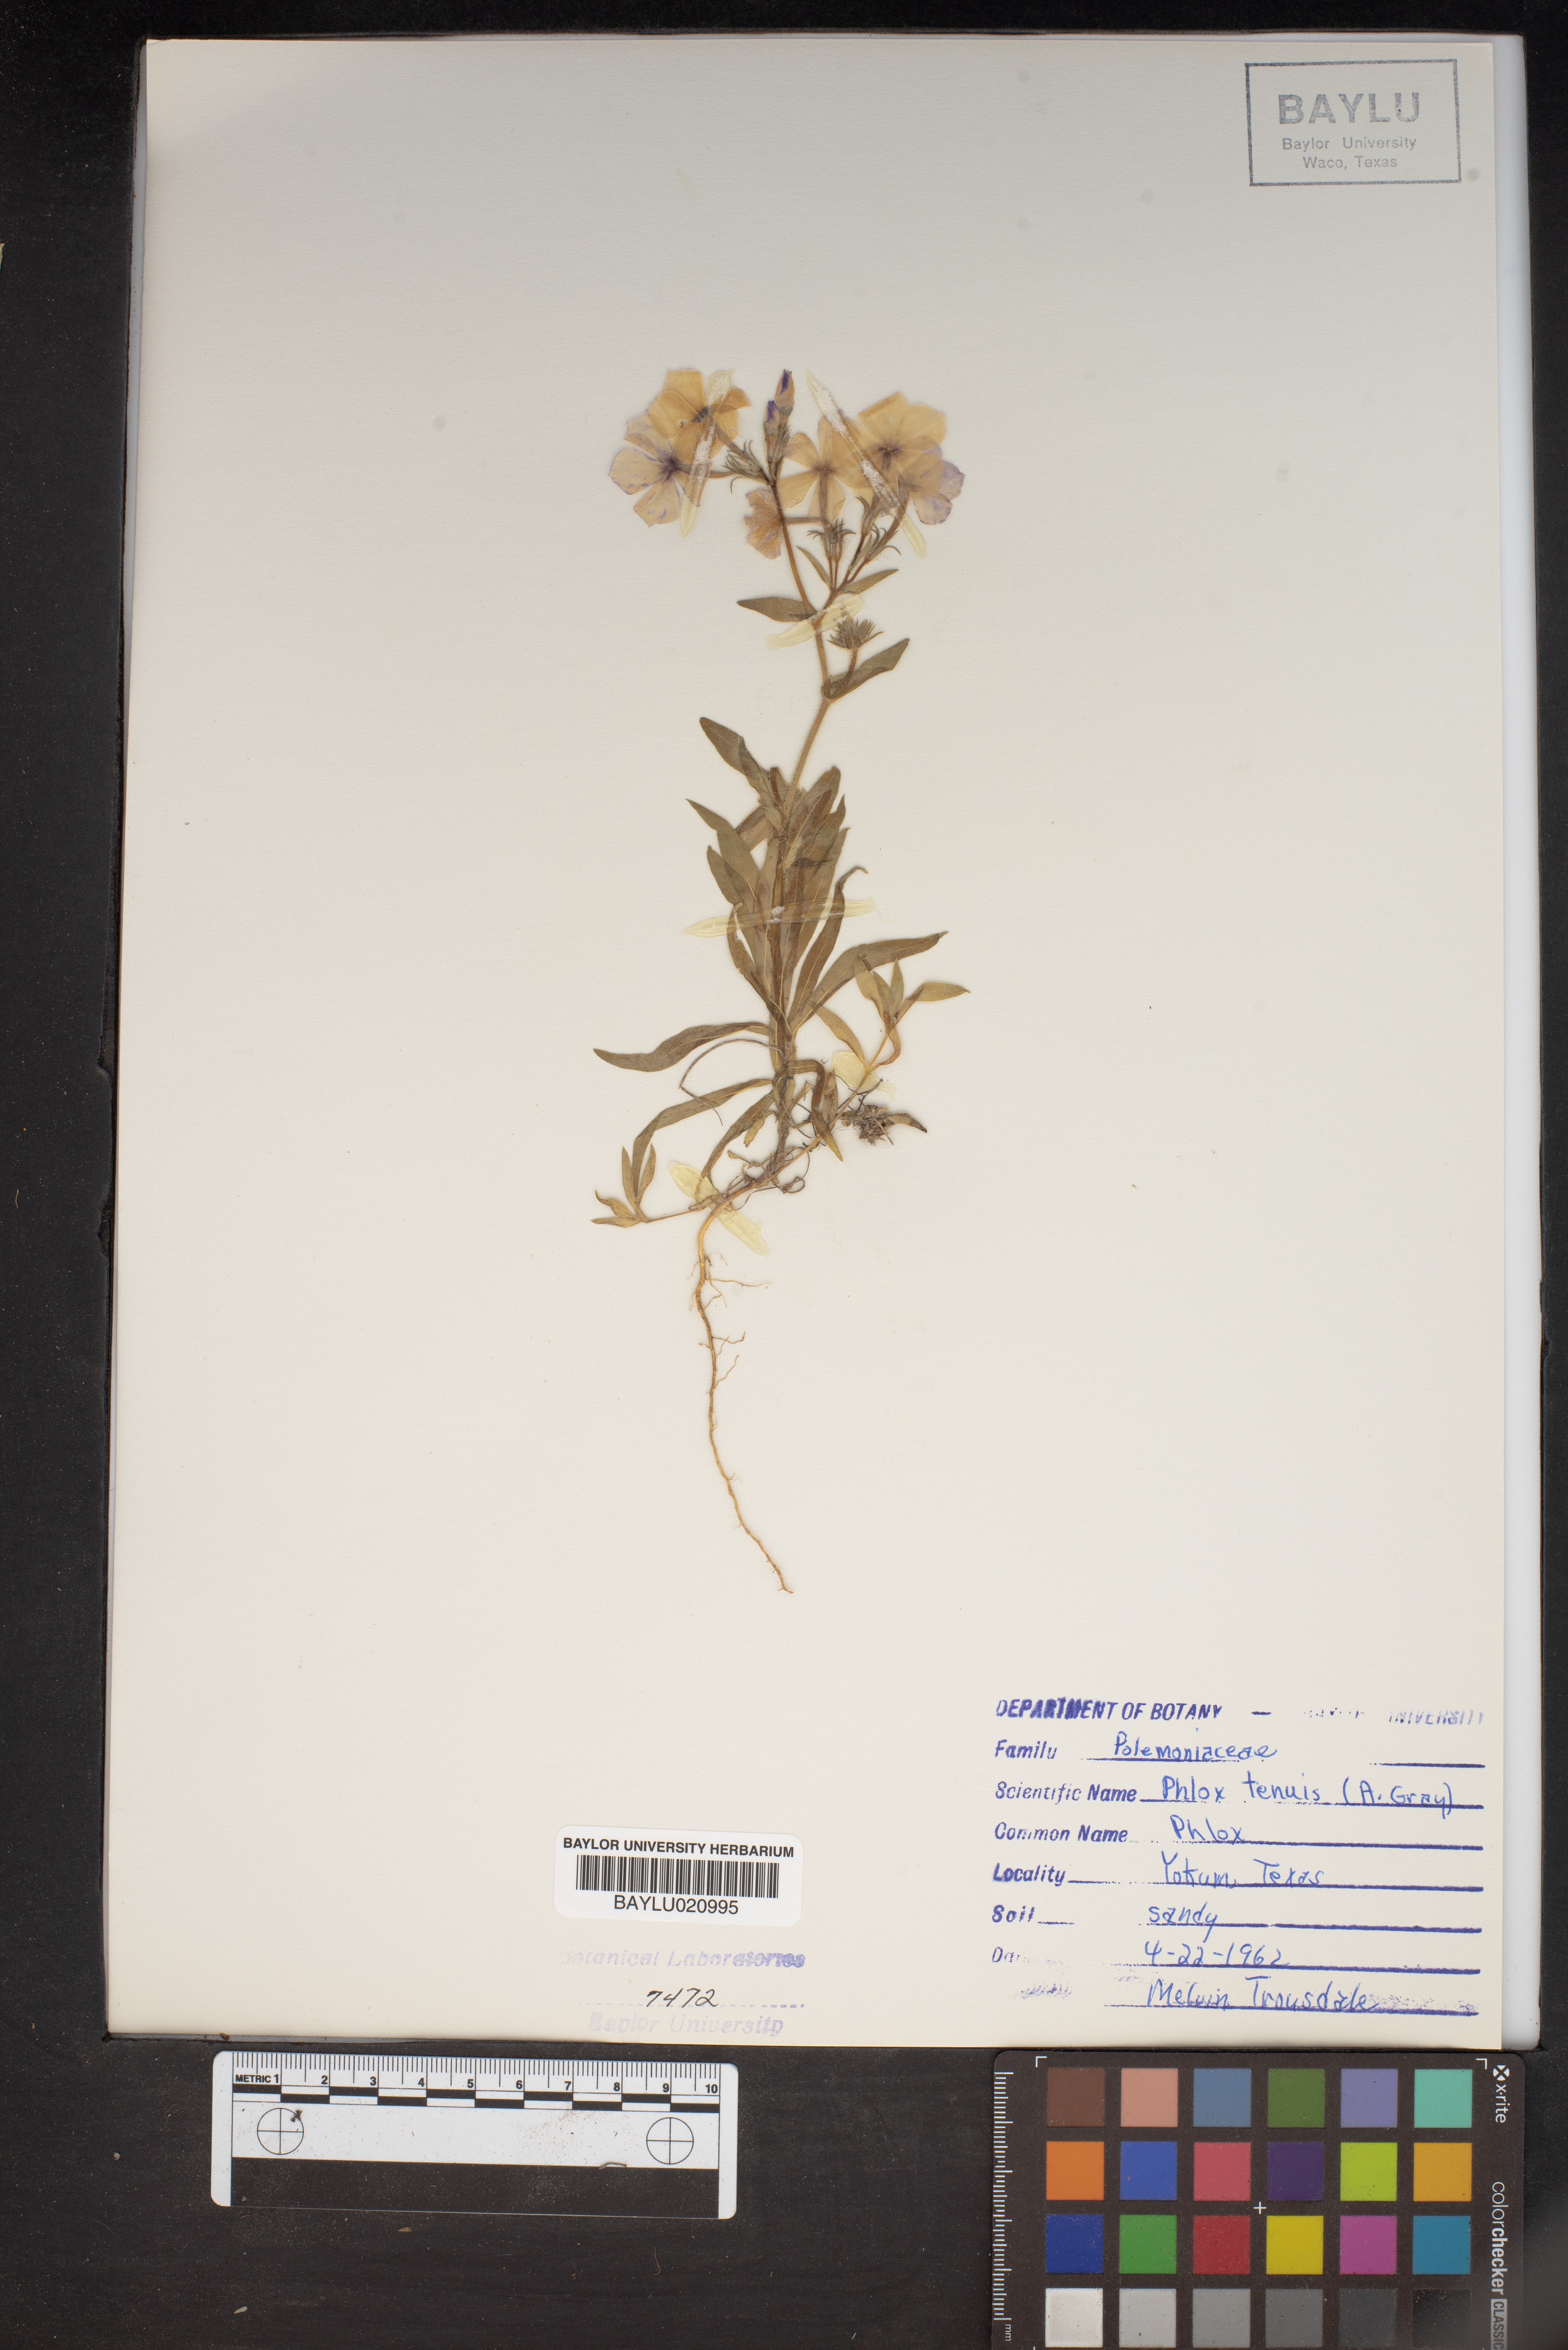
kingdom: Plantae
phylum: Tracheophyta
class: Magnoliopsida
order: Ericales
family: Polemoniaceae
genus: Phlox
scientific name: Phlox longifolia
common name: Longleaf phlox
